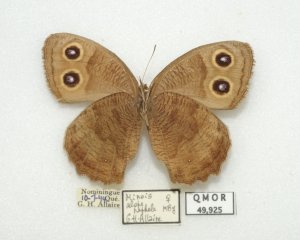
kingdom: Animalia
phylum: Arthropoda
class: Insecta
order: Lepidoptera
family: Nymphalidae
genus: Cercyonis
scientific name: Cercyonis pegala
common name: Common Wood-Nymph
